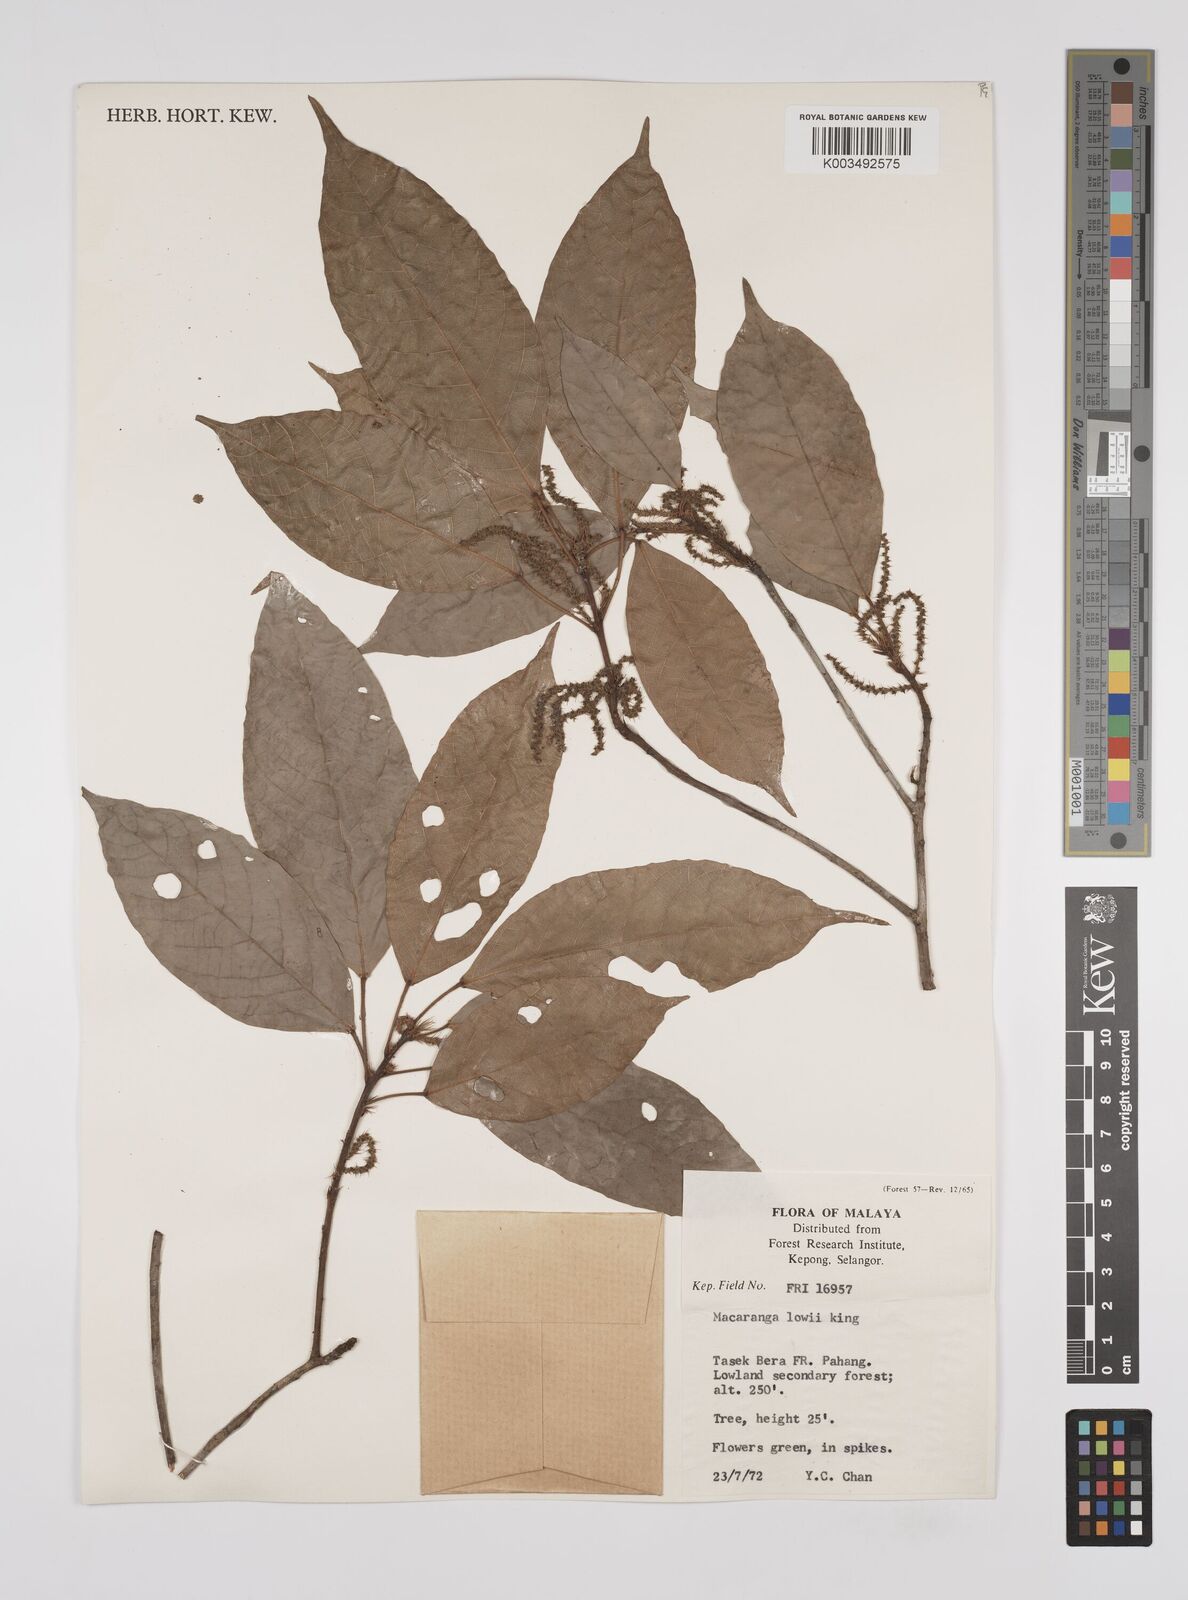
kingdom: Plantae
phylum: Tracheophyta
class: Magnoliopsida
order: Malpighiales
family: Euphorbiaceae
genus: Macaranga
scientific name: Macaranga lowii
